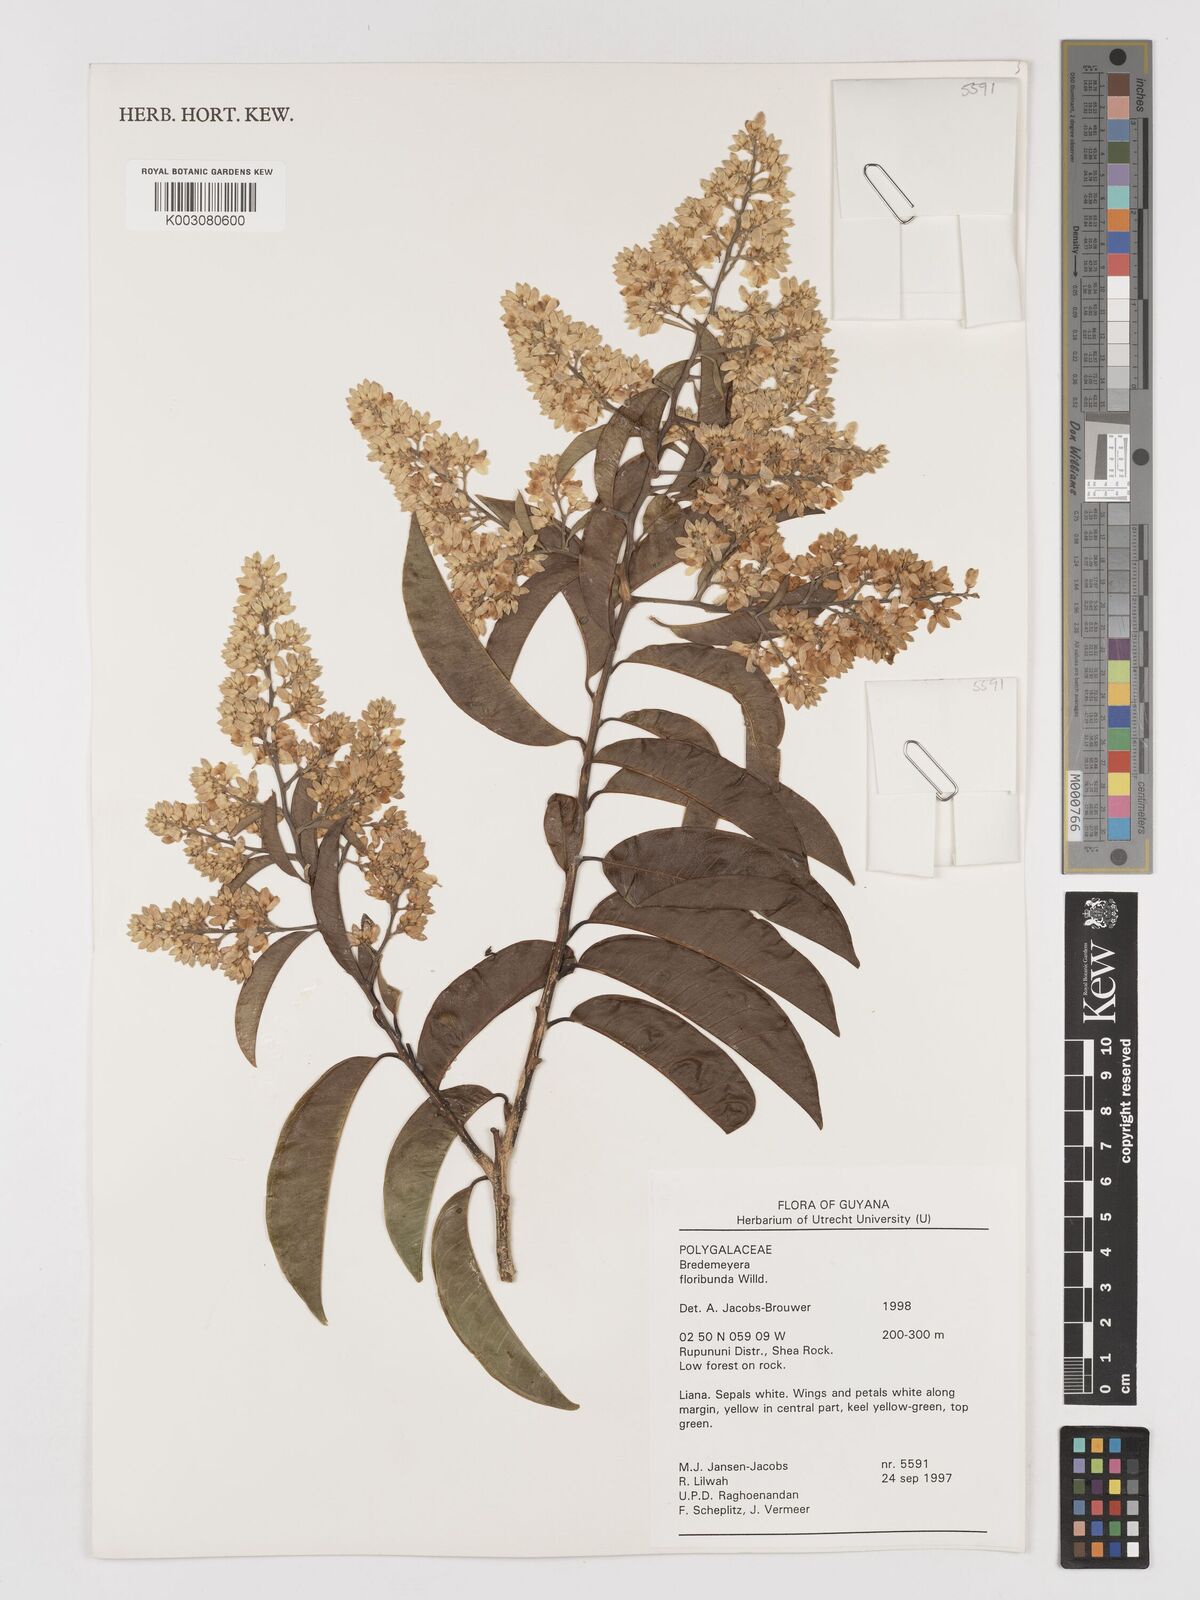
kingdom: Plantae
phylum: Tracheophyta
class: Magnoliopsida
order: Fabales
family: Polygalaceae
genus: Bredemeyera
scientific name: Bredemeyera floribunda
